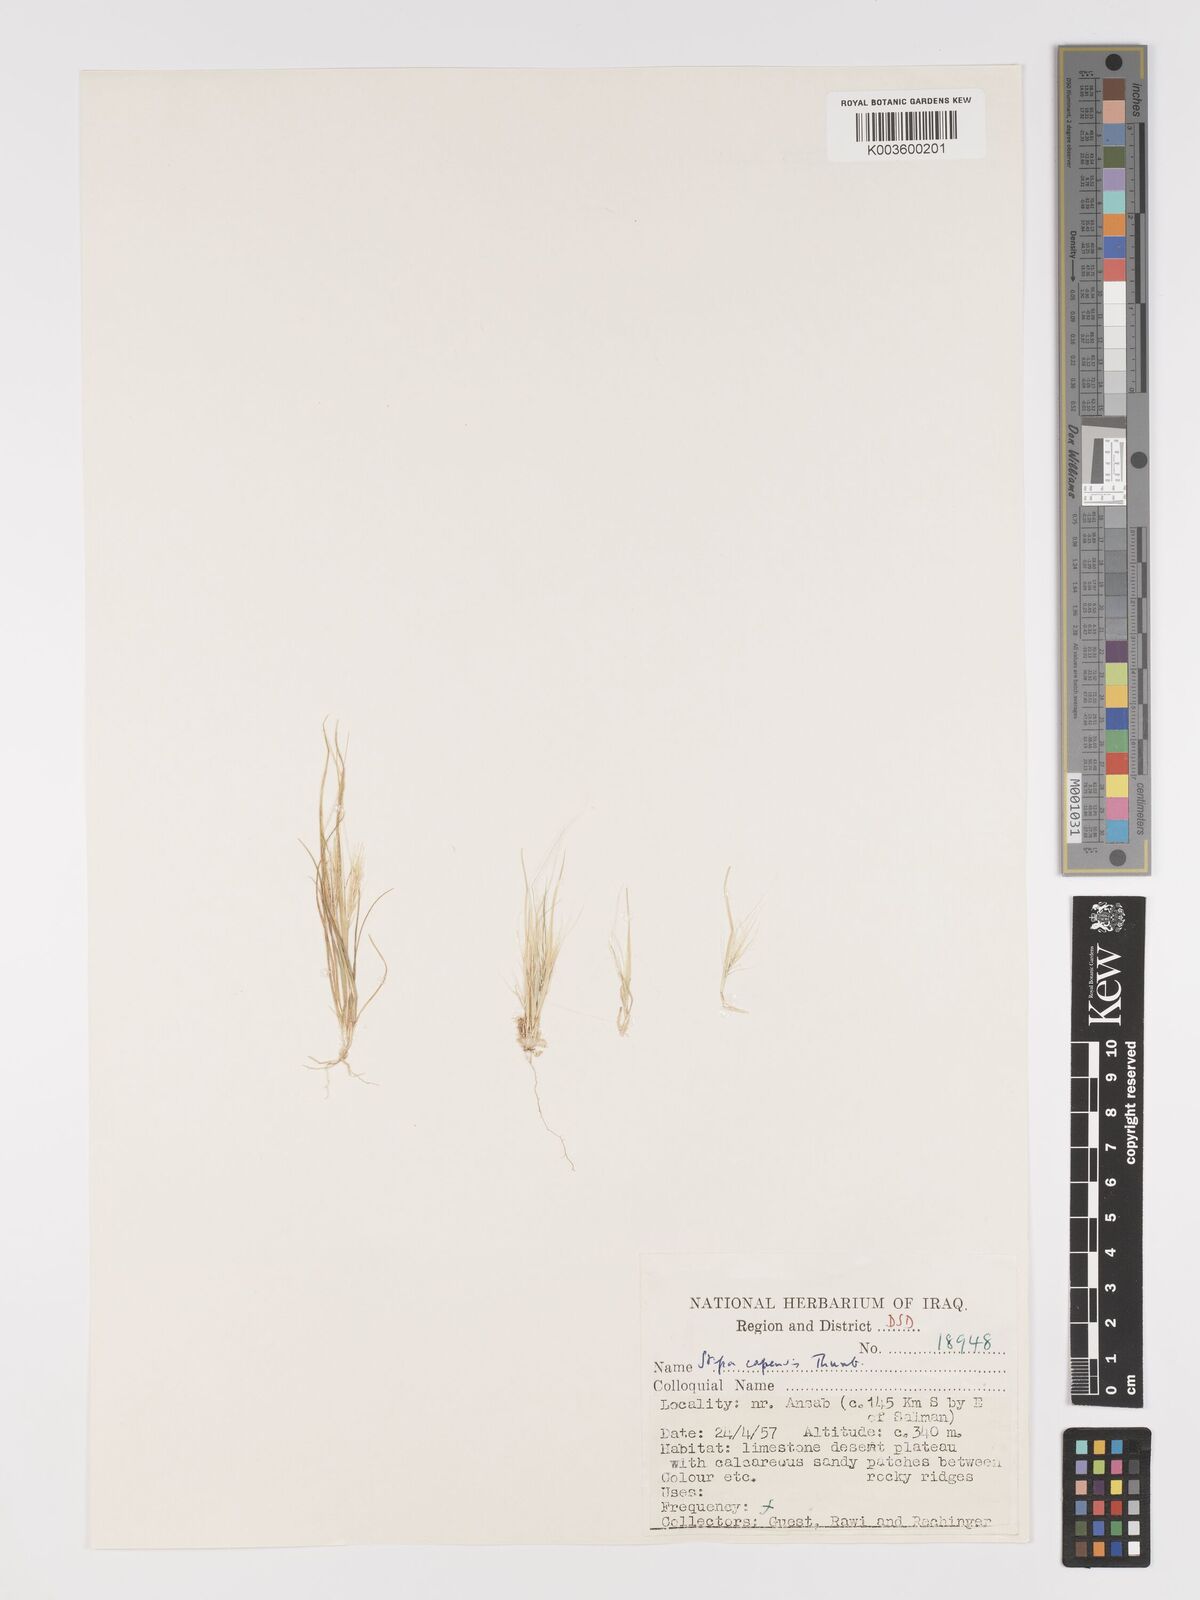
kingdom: Plantae
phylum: Tracheophyta
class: Liliopsida
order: Poales
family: Poaceae
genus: Stipellula
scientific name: Stipellula capensis
